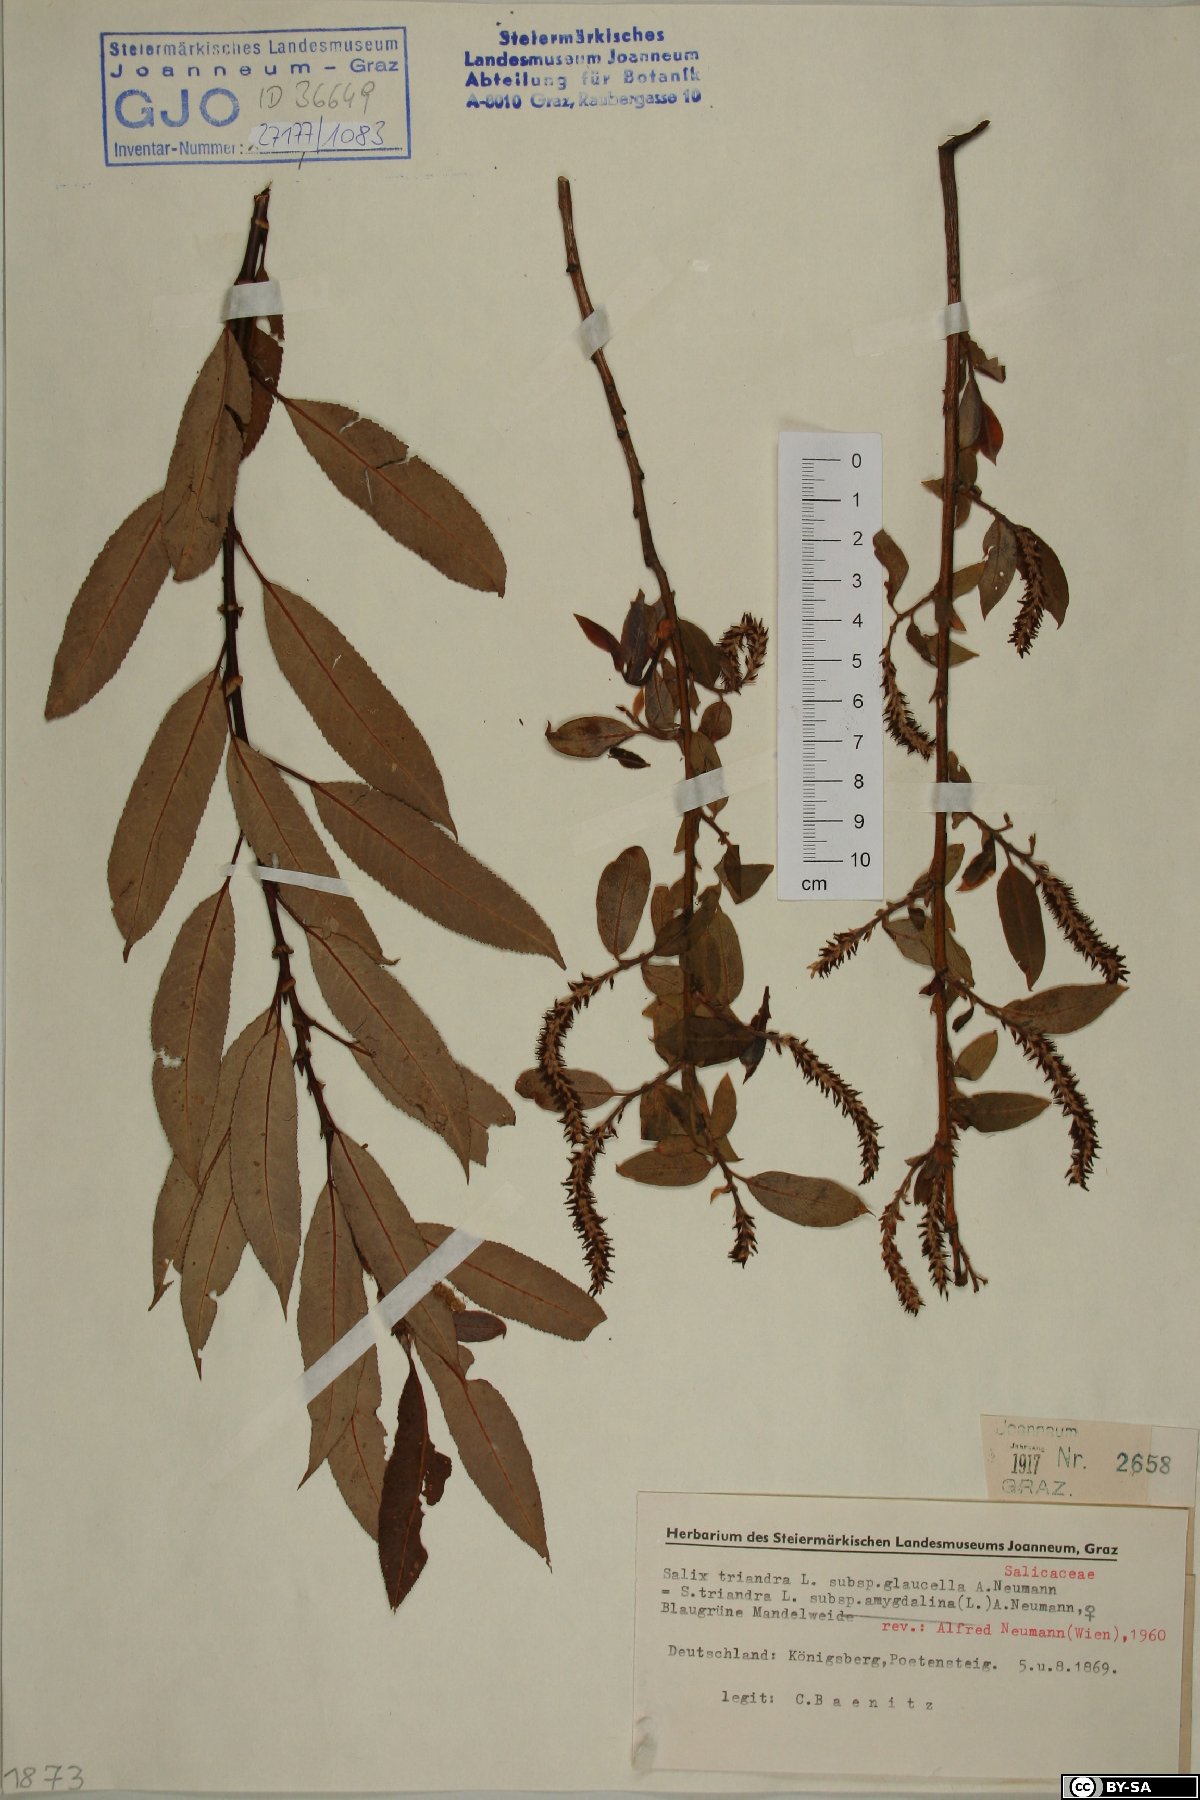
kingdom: Plantae
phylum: Tracheophyta
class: Magnoliopsida
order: Malpighiales
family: Salicaceae
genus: Salix
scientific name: Salix triandra
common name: Almond willow
